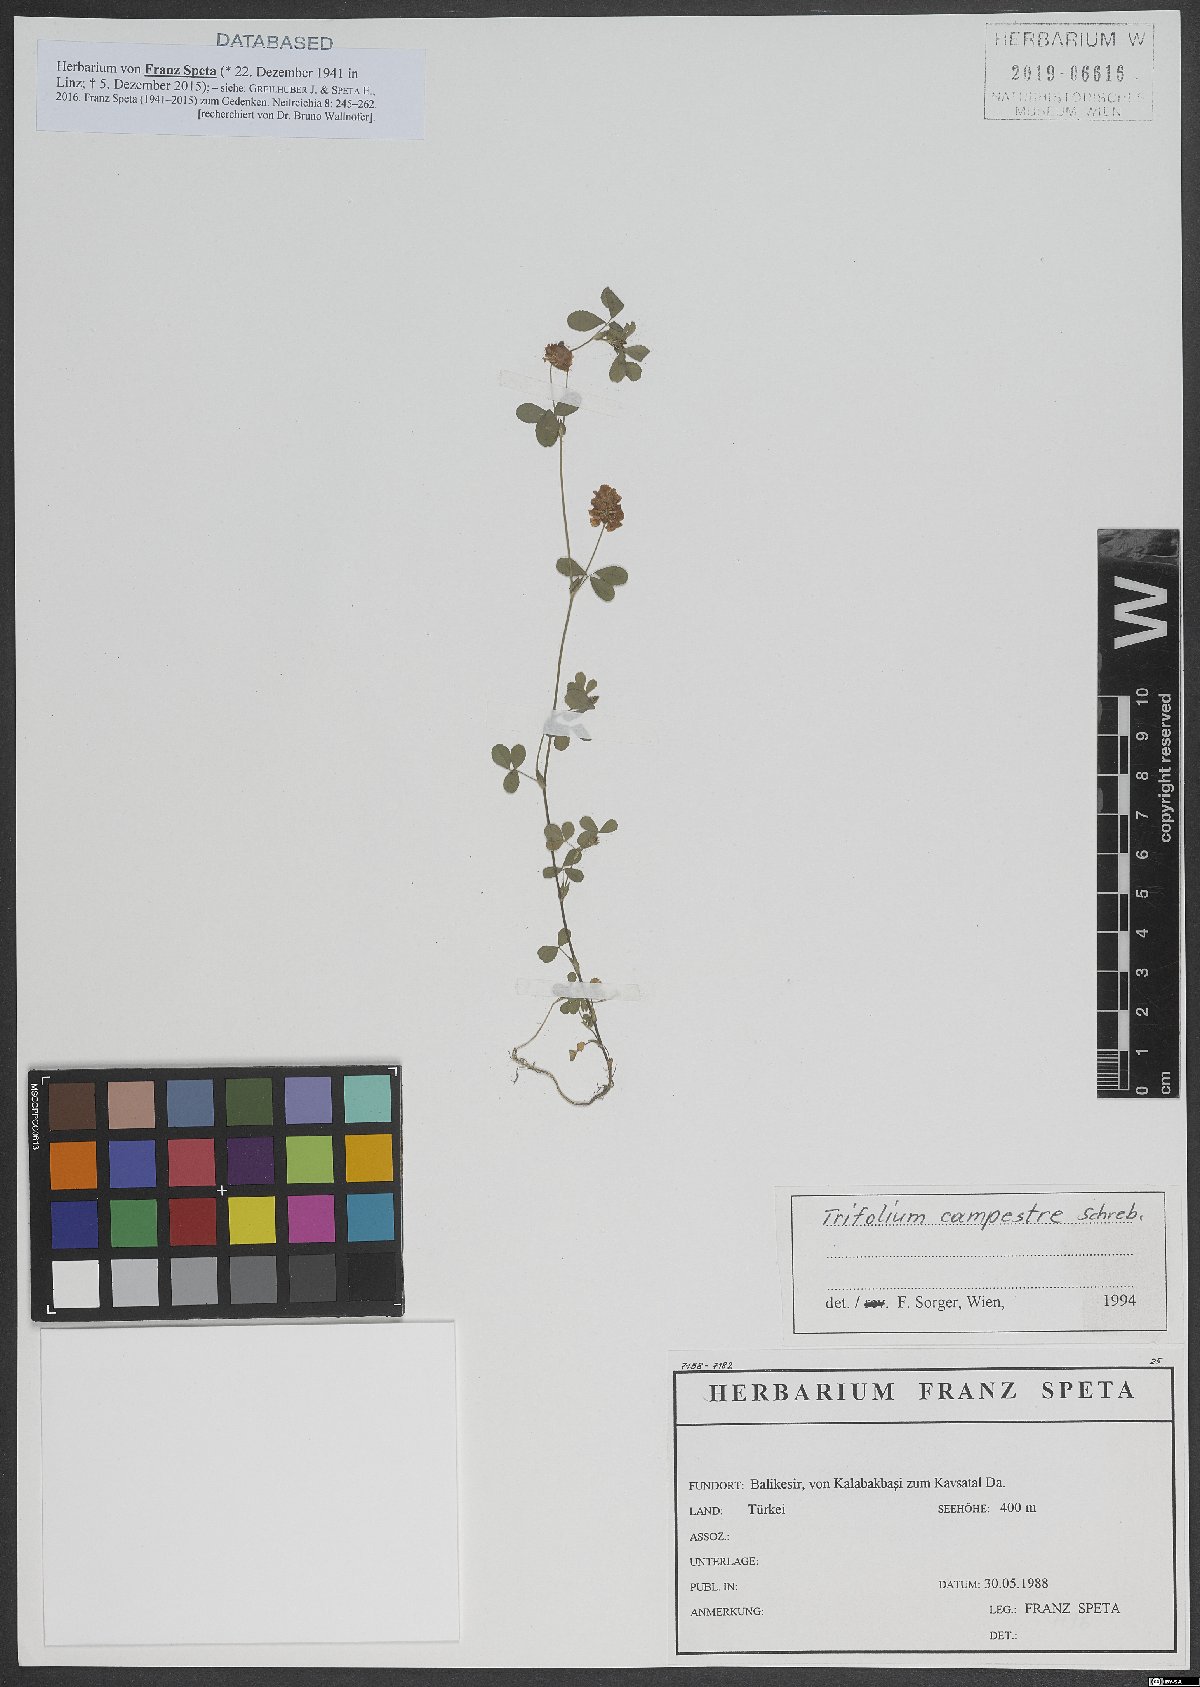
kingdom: Plantae
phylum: Tracheophyta
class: Magnoliopsida
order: Fabales
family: Fabaceae
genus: Trifolium
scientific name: Trifolium campestre
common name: Field clover
